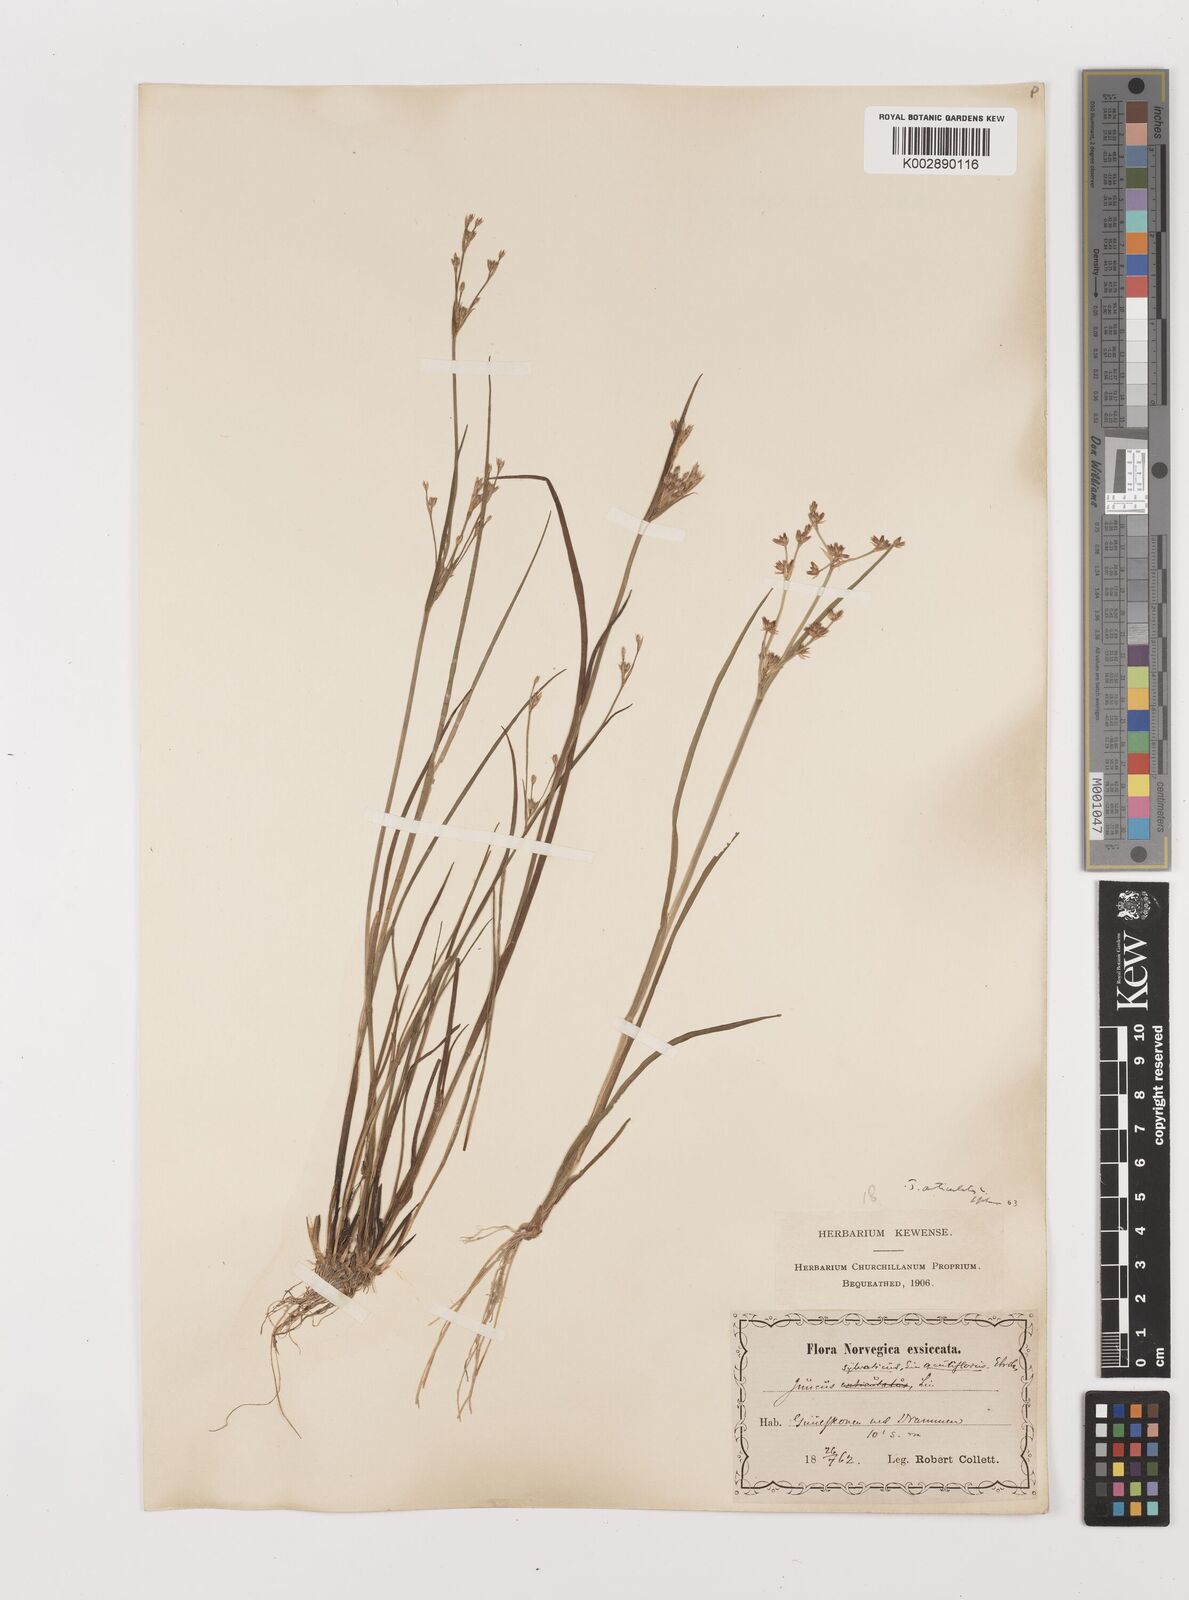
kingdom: Plantae
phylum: Tracheophyta
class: Liliopsida
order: Poales
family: Juncaceae
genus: Juncus
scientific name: Juncus articulatus
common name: Jointed rush
